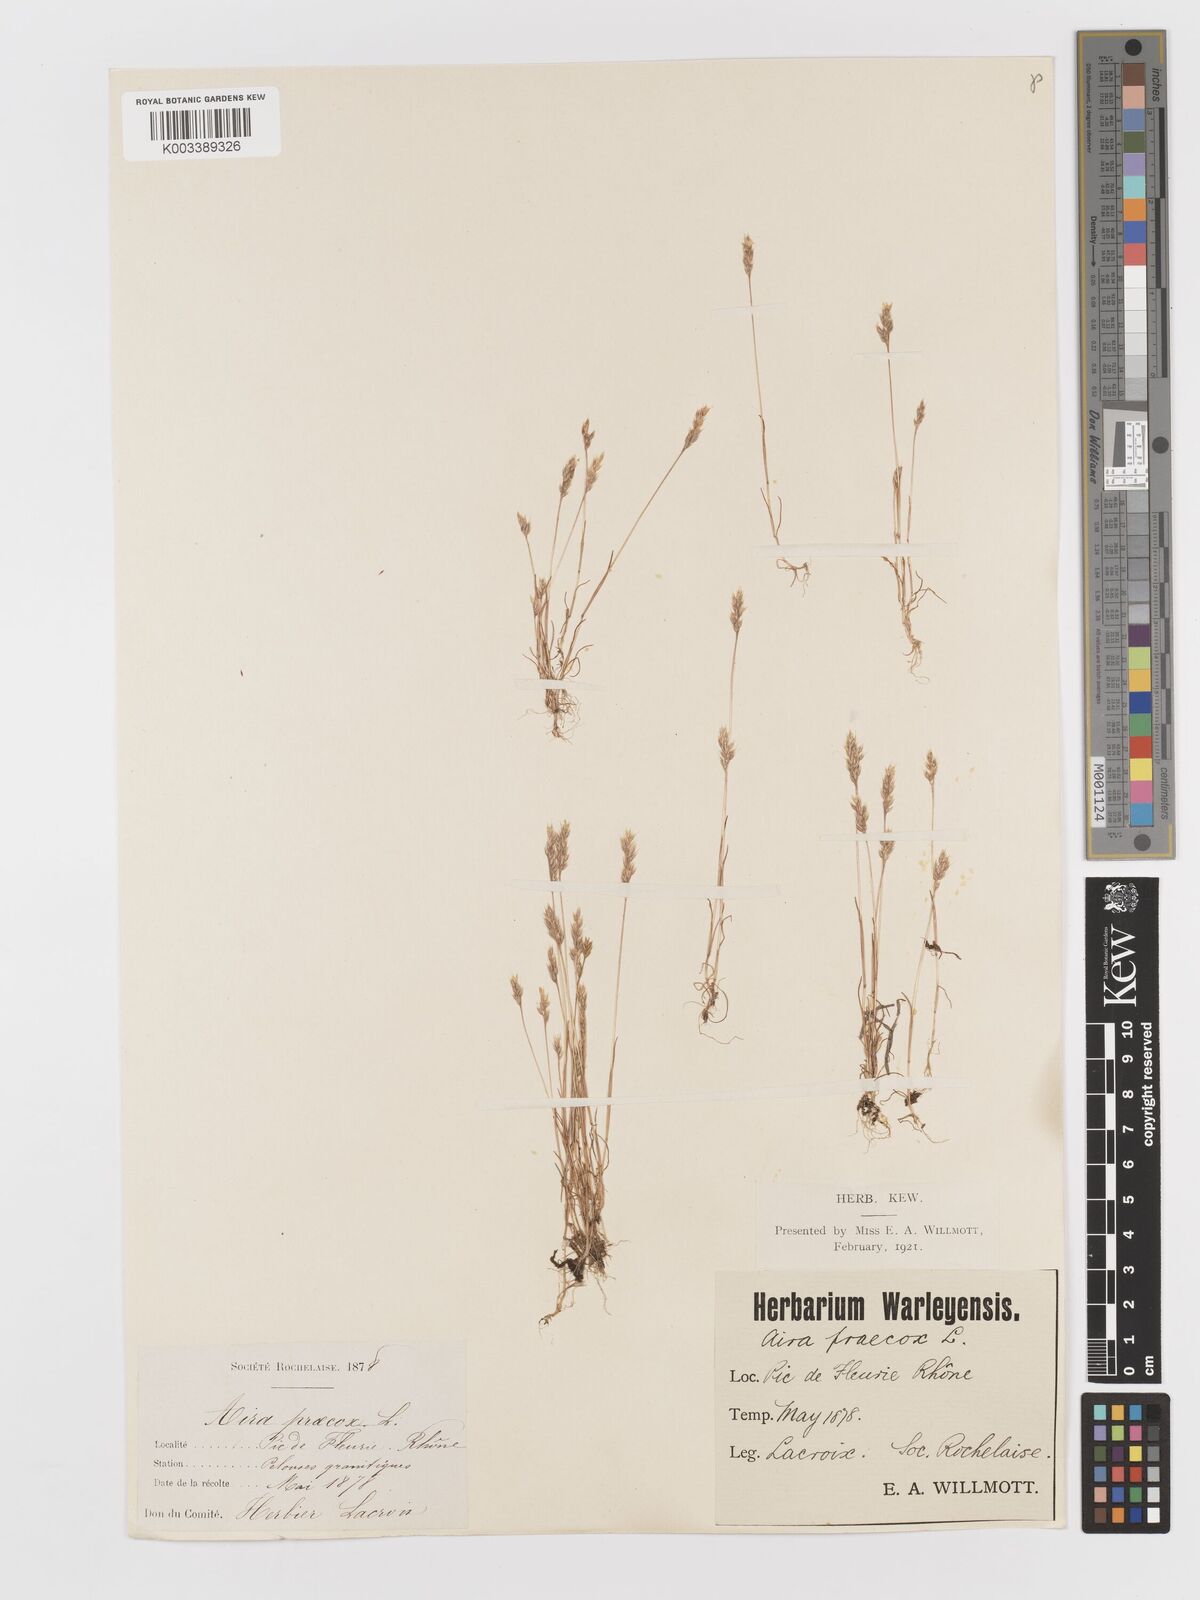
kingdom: Plantae
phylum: Tracheophyta
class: Liliopsida
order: Poales
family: Poaceae
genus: Aira
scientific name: Aira praecox
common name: Early hair-grass
